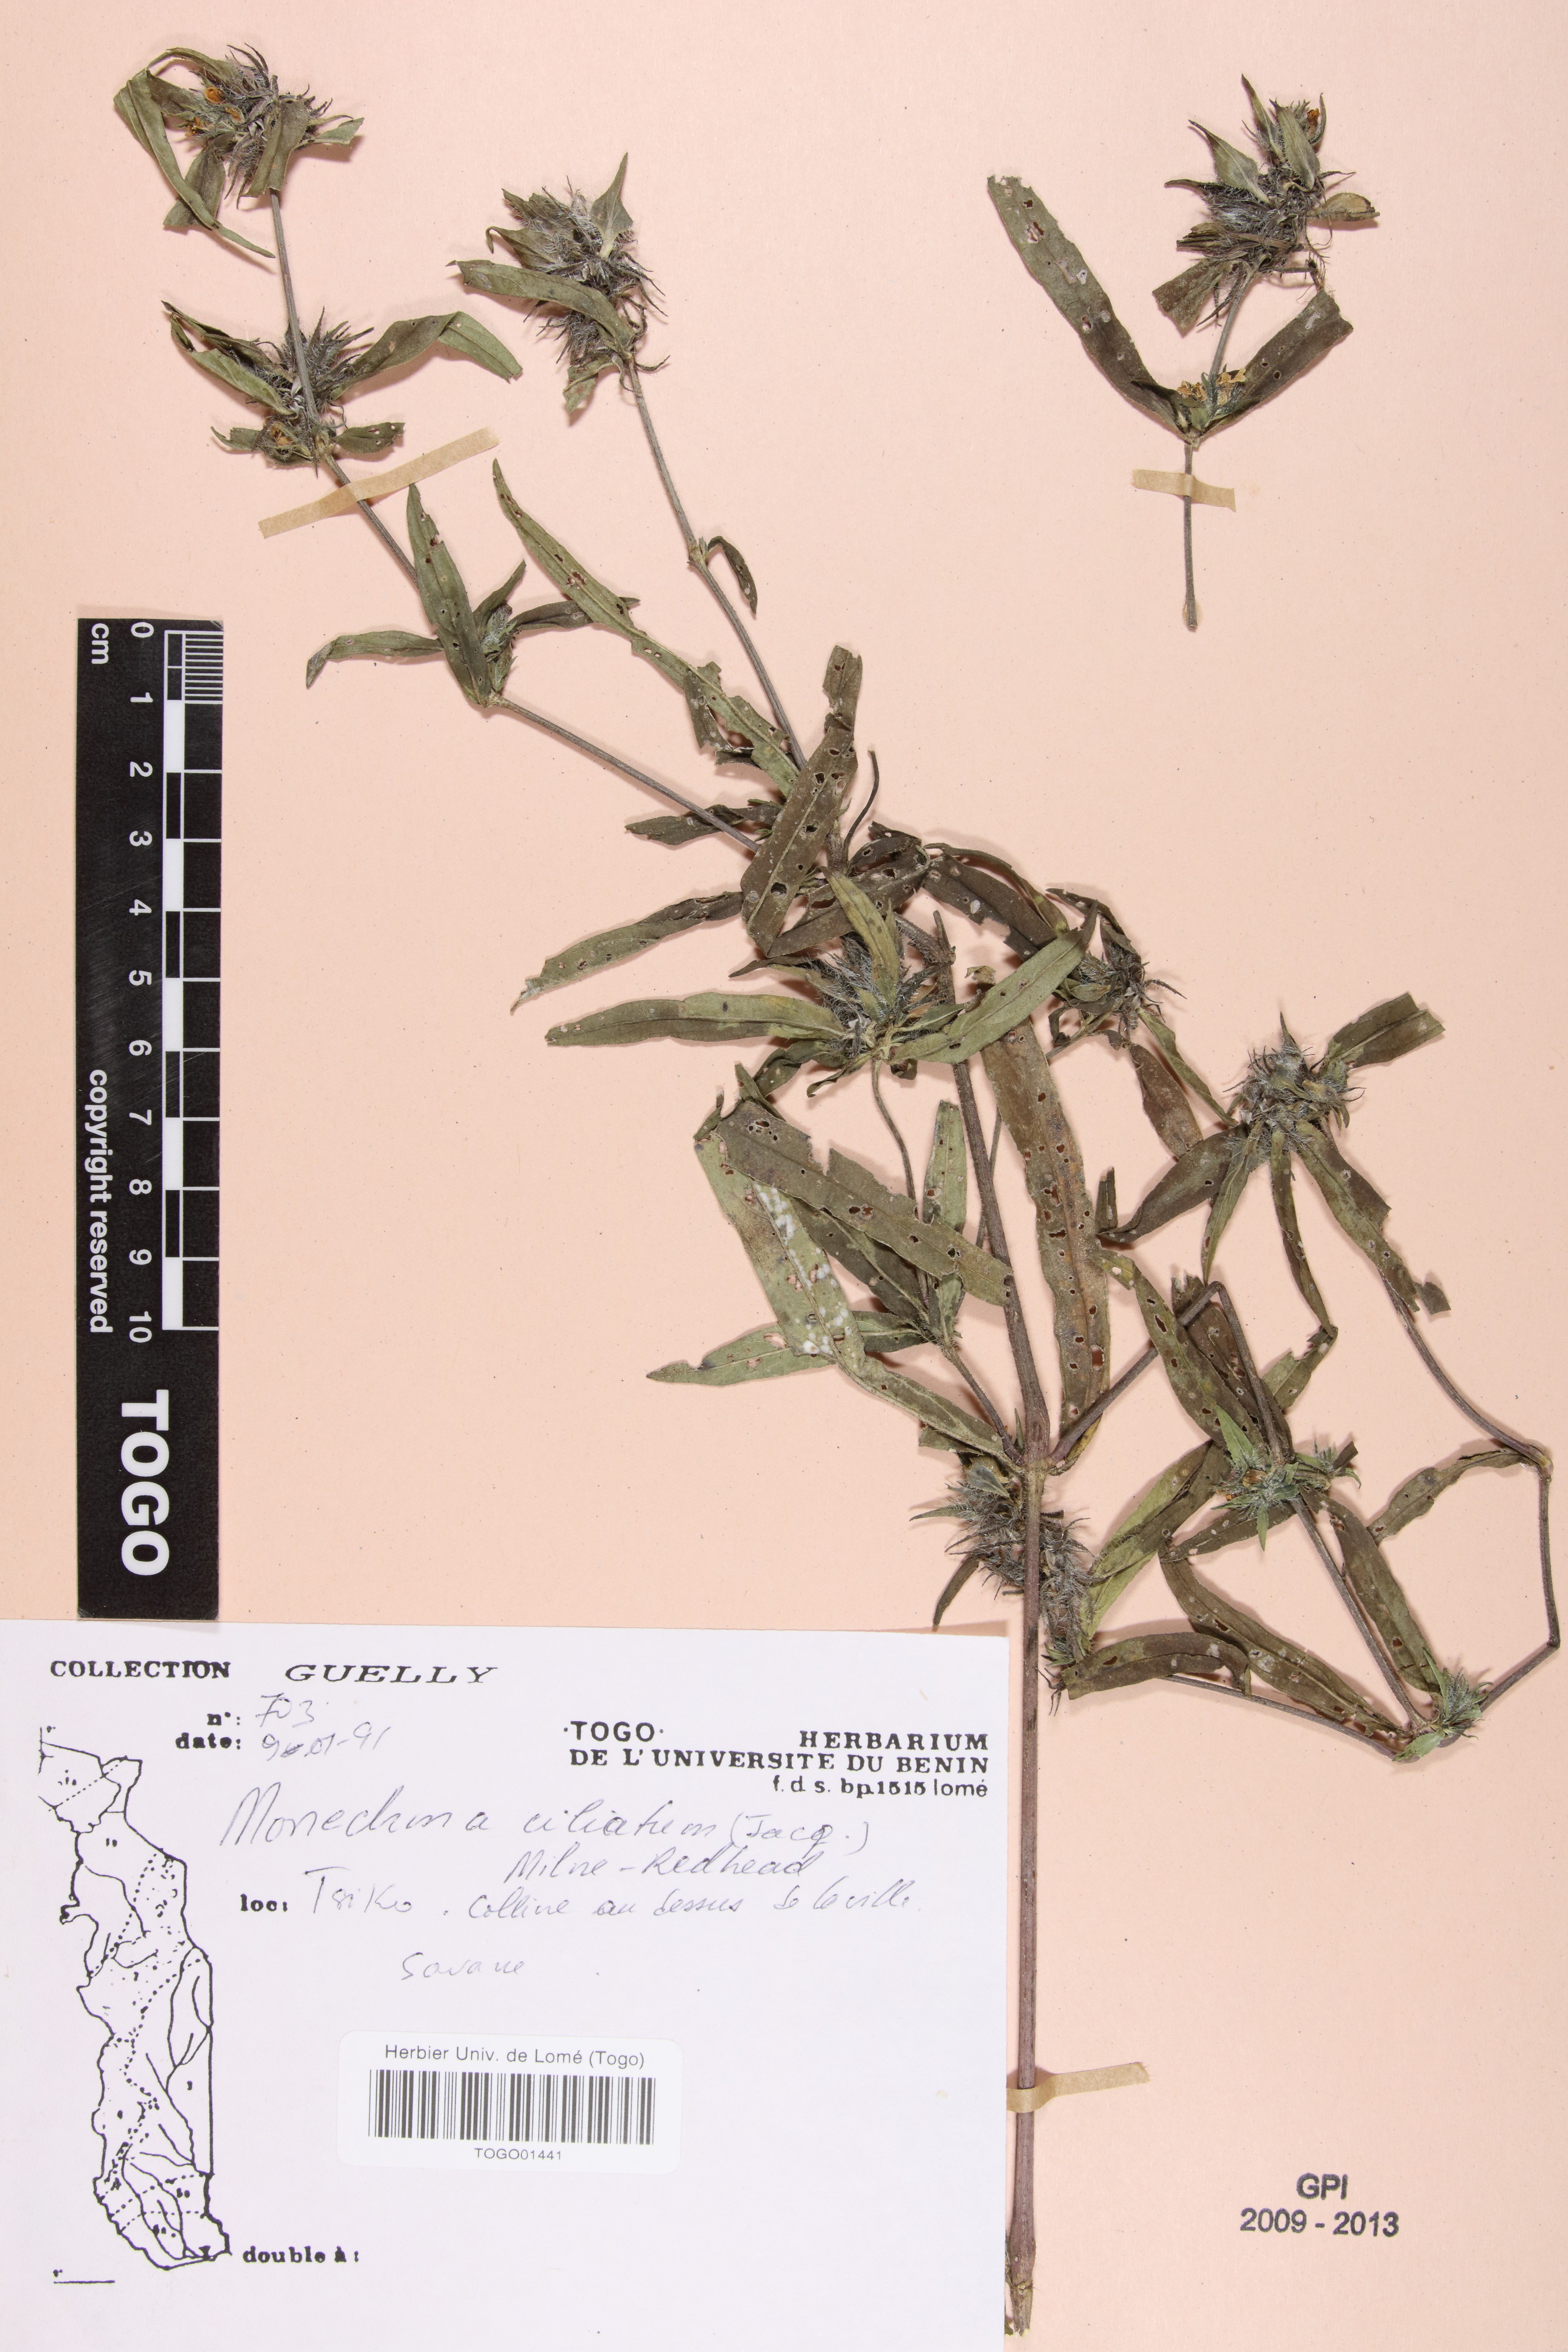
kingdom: Plantae
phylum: Tracheophyta
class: Magnoliopsida
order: Lamiales
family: Acanthaceae
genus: Pogonospermum
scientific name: Pogonospermum ciliare
